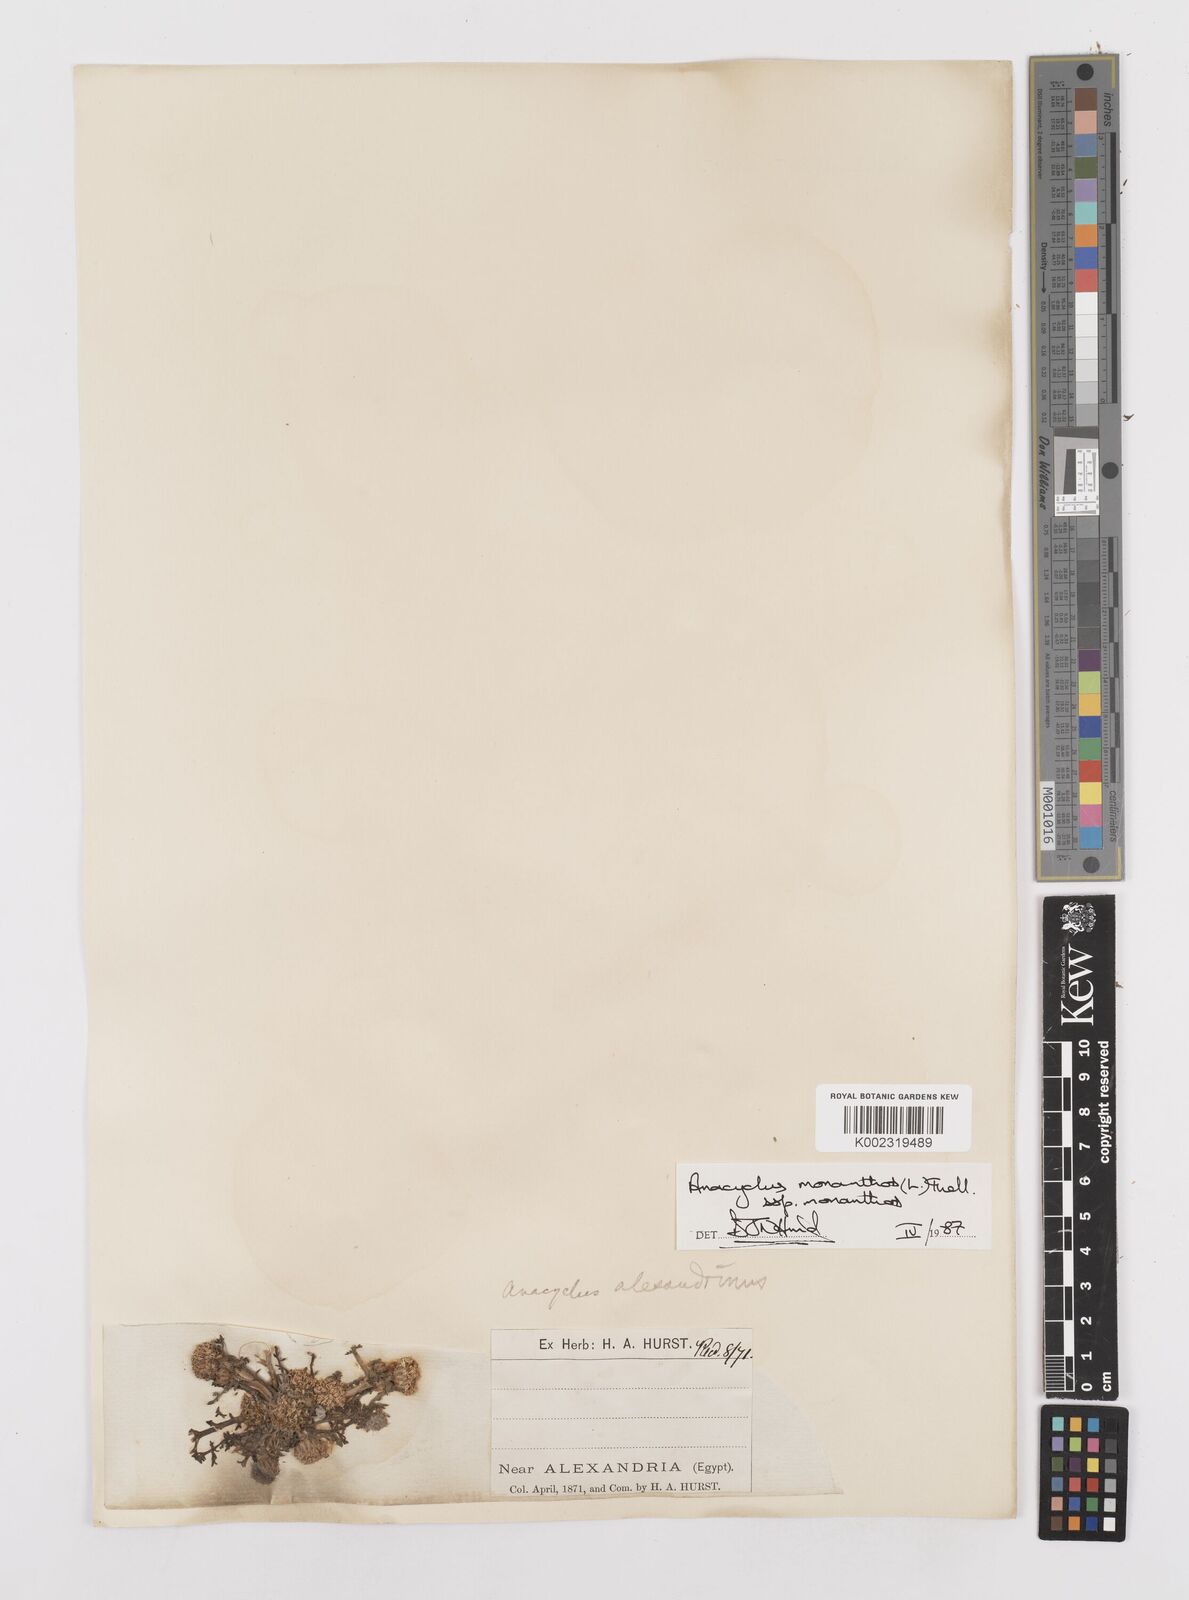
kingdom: Plantae
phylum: Tracheophyta
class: Magnoliopsida
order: Asterales
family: Asteraceae
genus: Anacyclus
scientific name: Anacyclus monanthos
